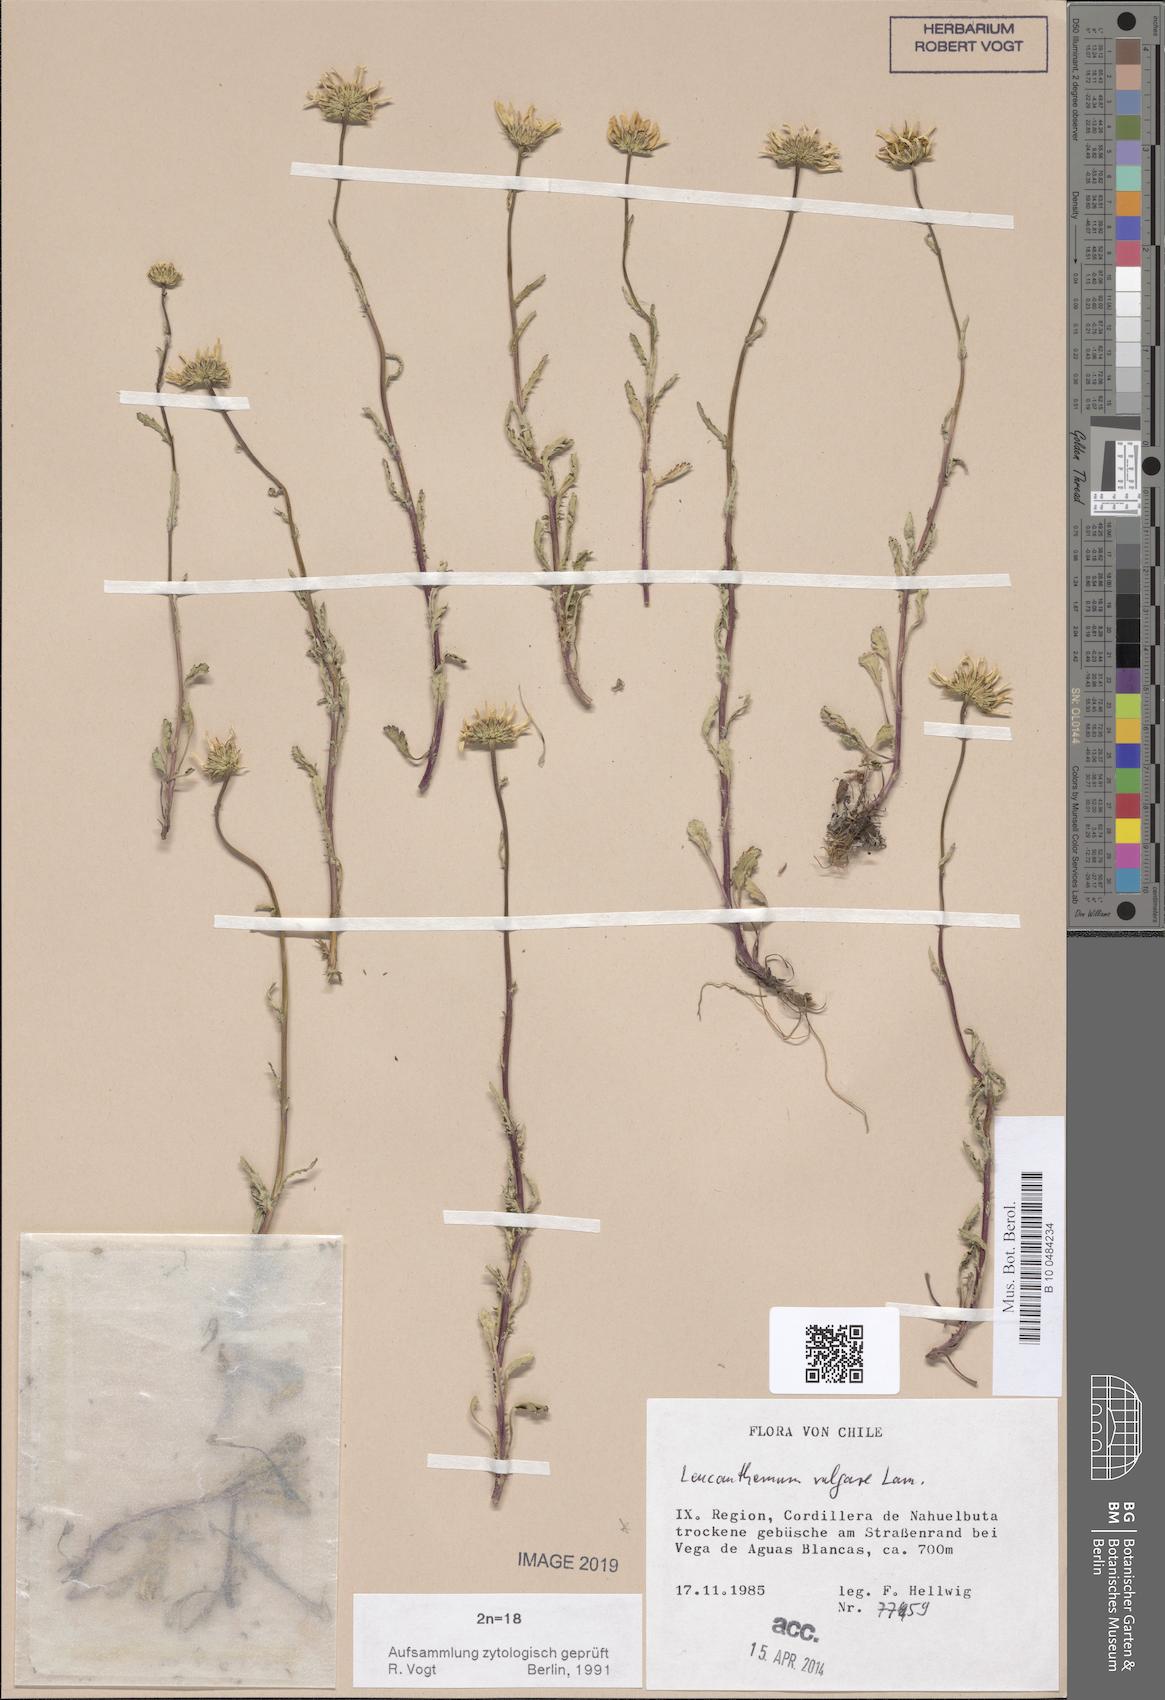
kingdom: Plantae
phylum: Tracheophyta
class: Magnoliopsida
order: Asterales
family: Asteraceae
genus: Leucanthemum
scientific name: Leucanthemum vulgare
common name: Oxeye daisy
